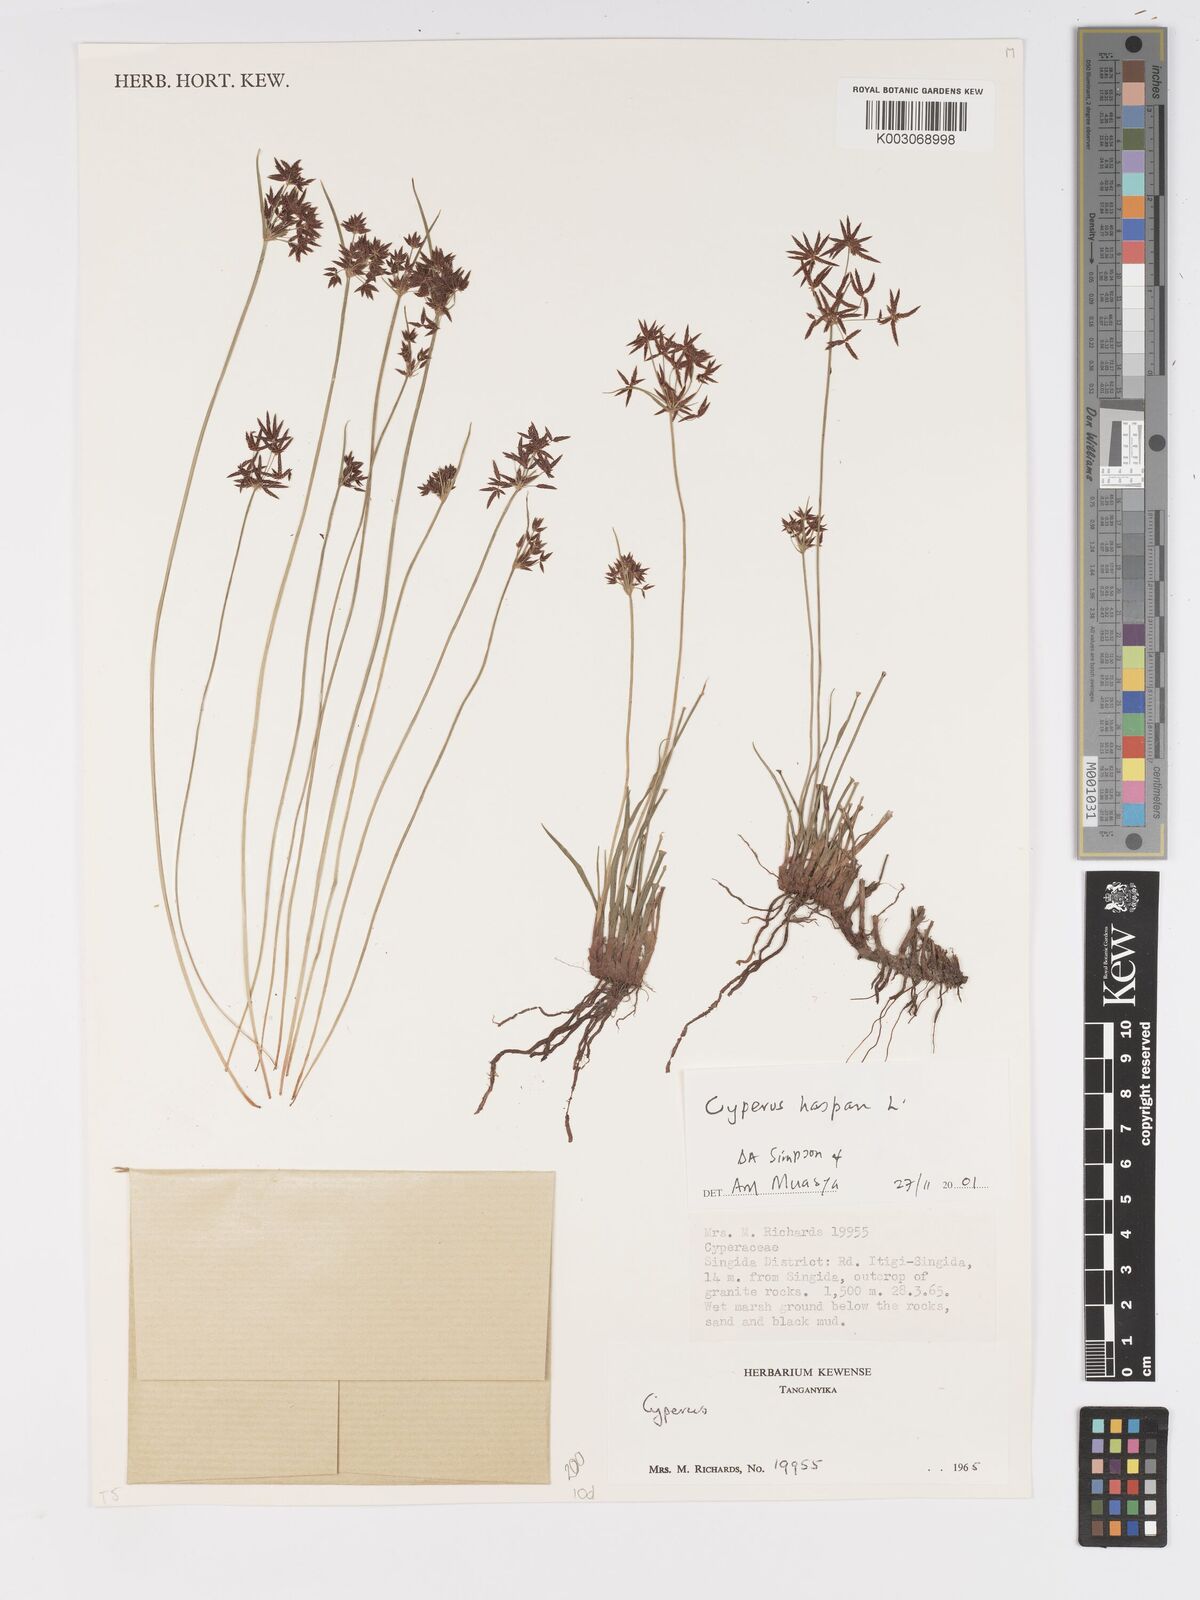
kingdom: Plantae
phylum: Tracheophyta
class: Liliopsida
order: Poales
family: Cyperaceae
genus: Cyperus
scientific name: Cyperus haspan
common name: Haspan flatsedge
